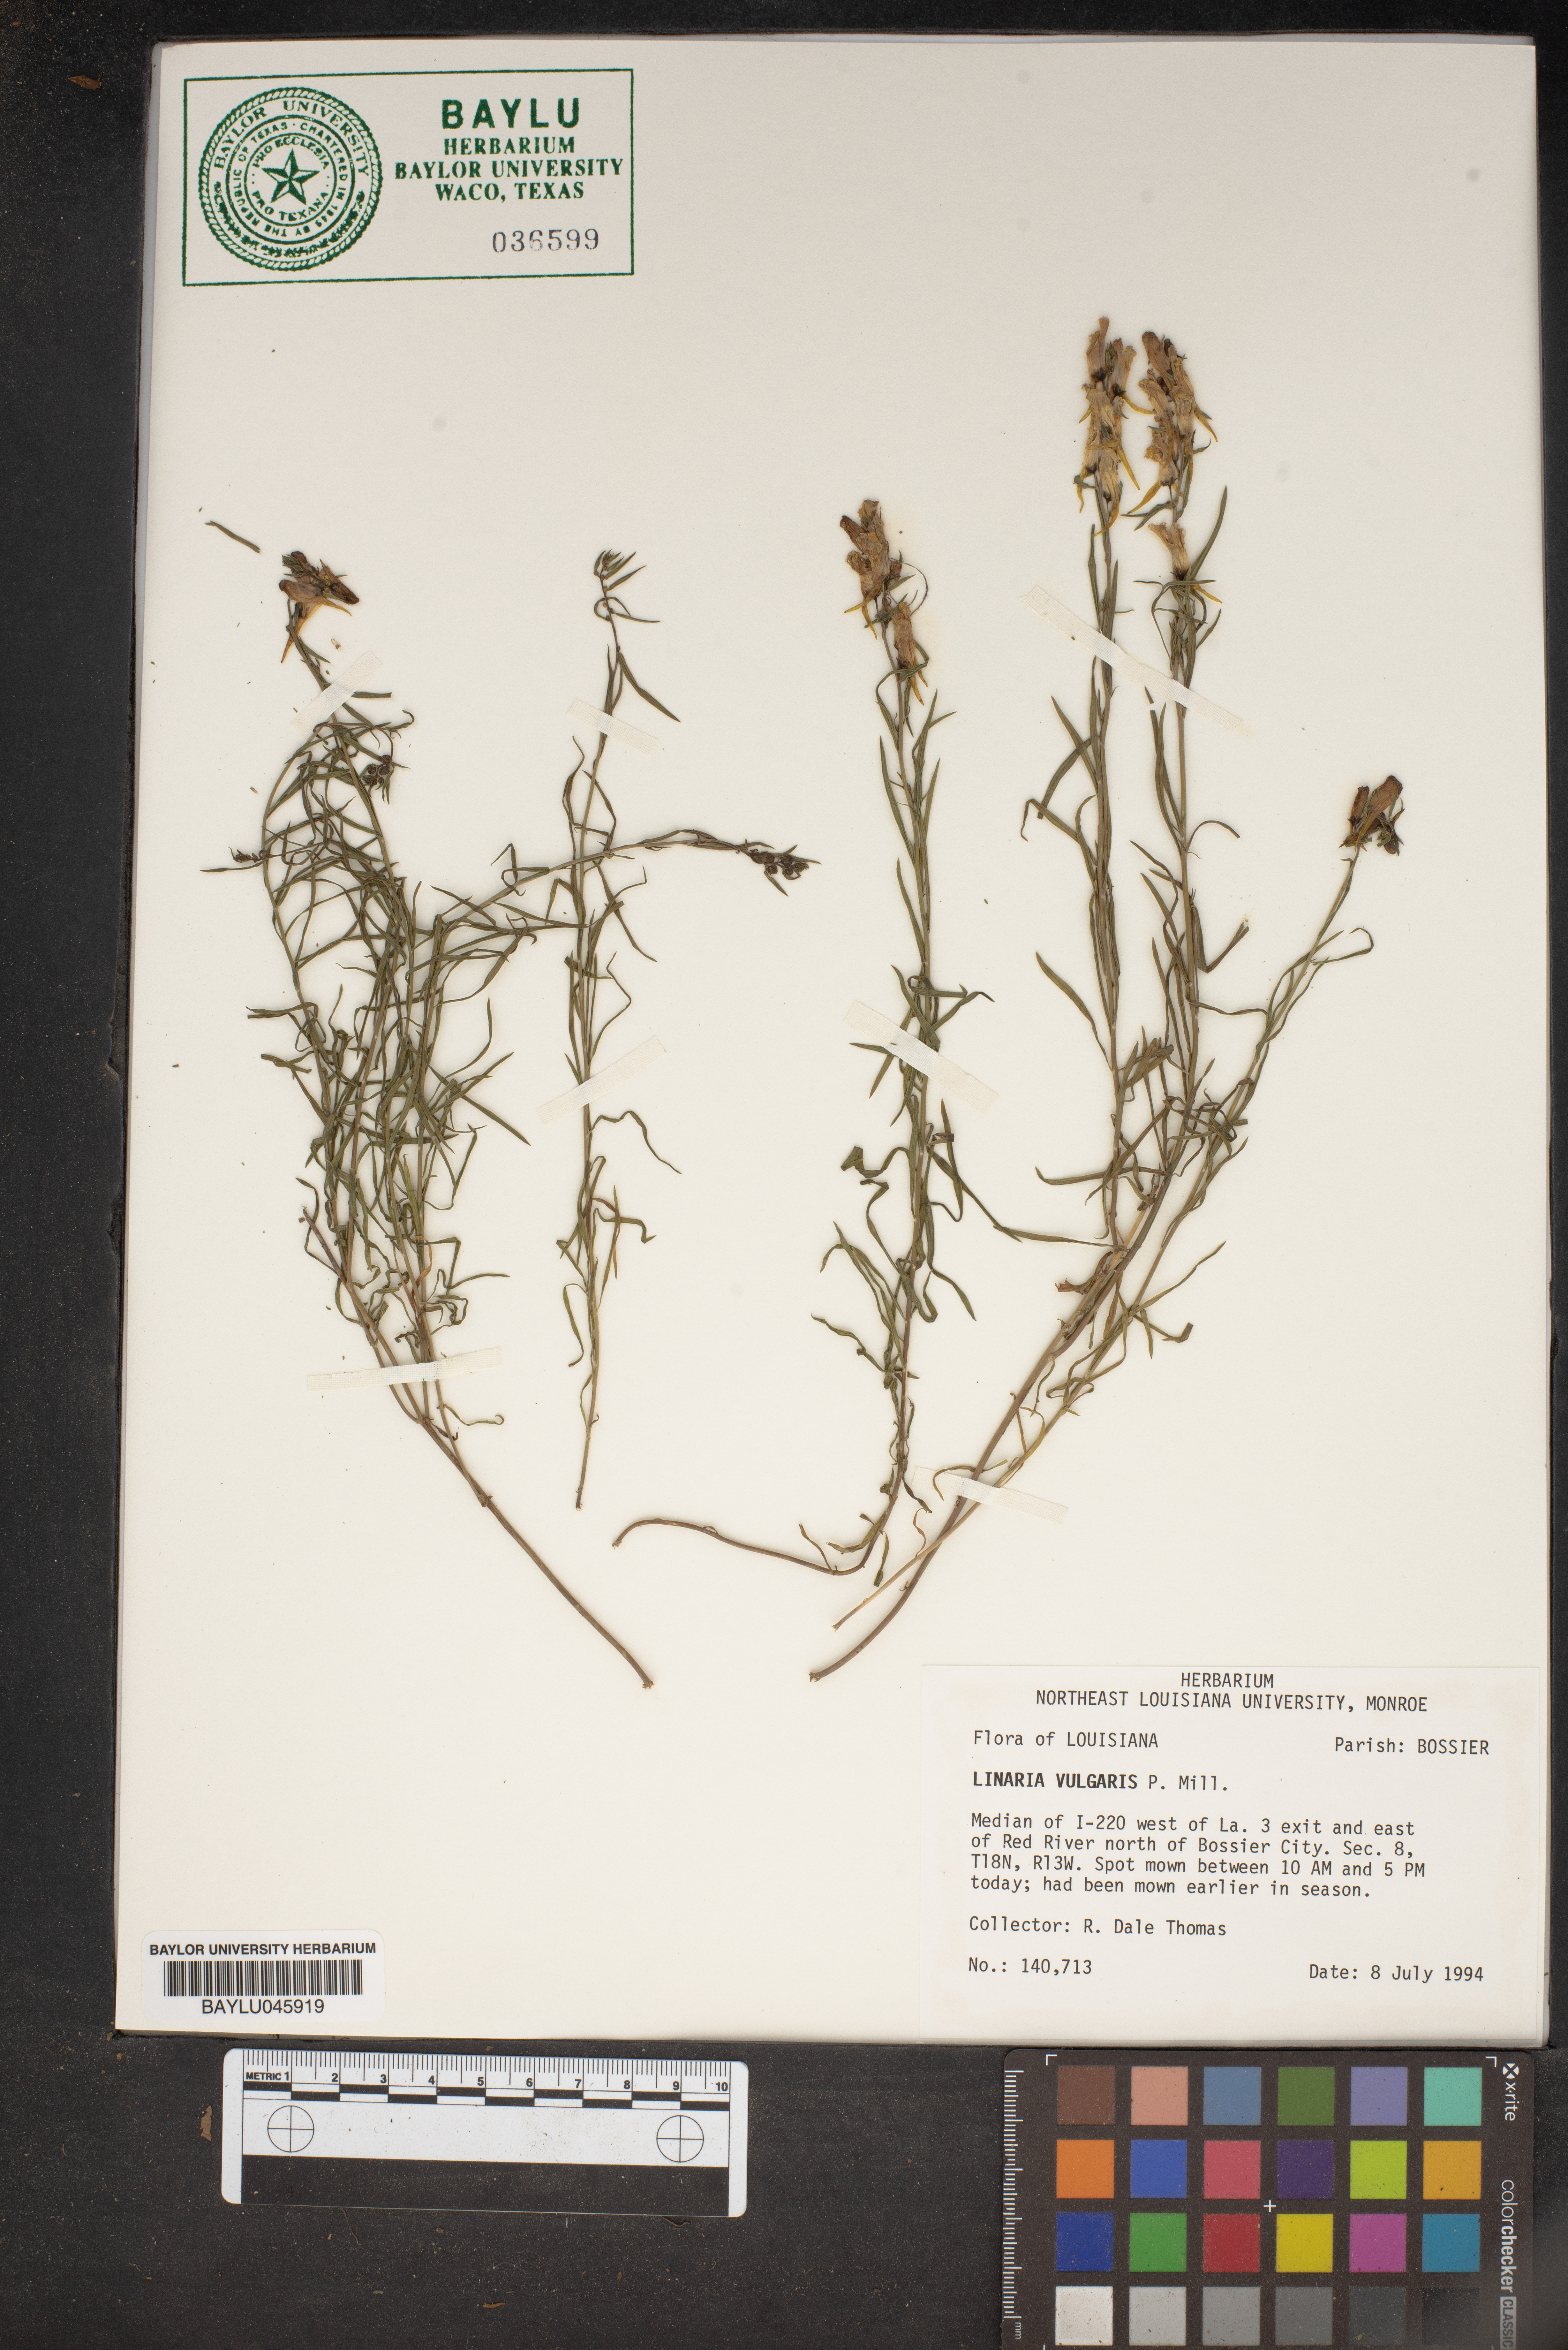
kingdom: Plantae
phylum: Tracheophyta
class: Magnoliopsida
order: Lamiales
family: Plantaginaceae
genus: Linaria
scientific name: Linaria vulgaris
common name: Butter and eggs
